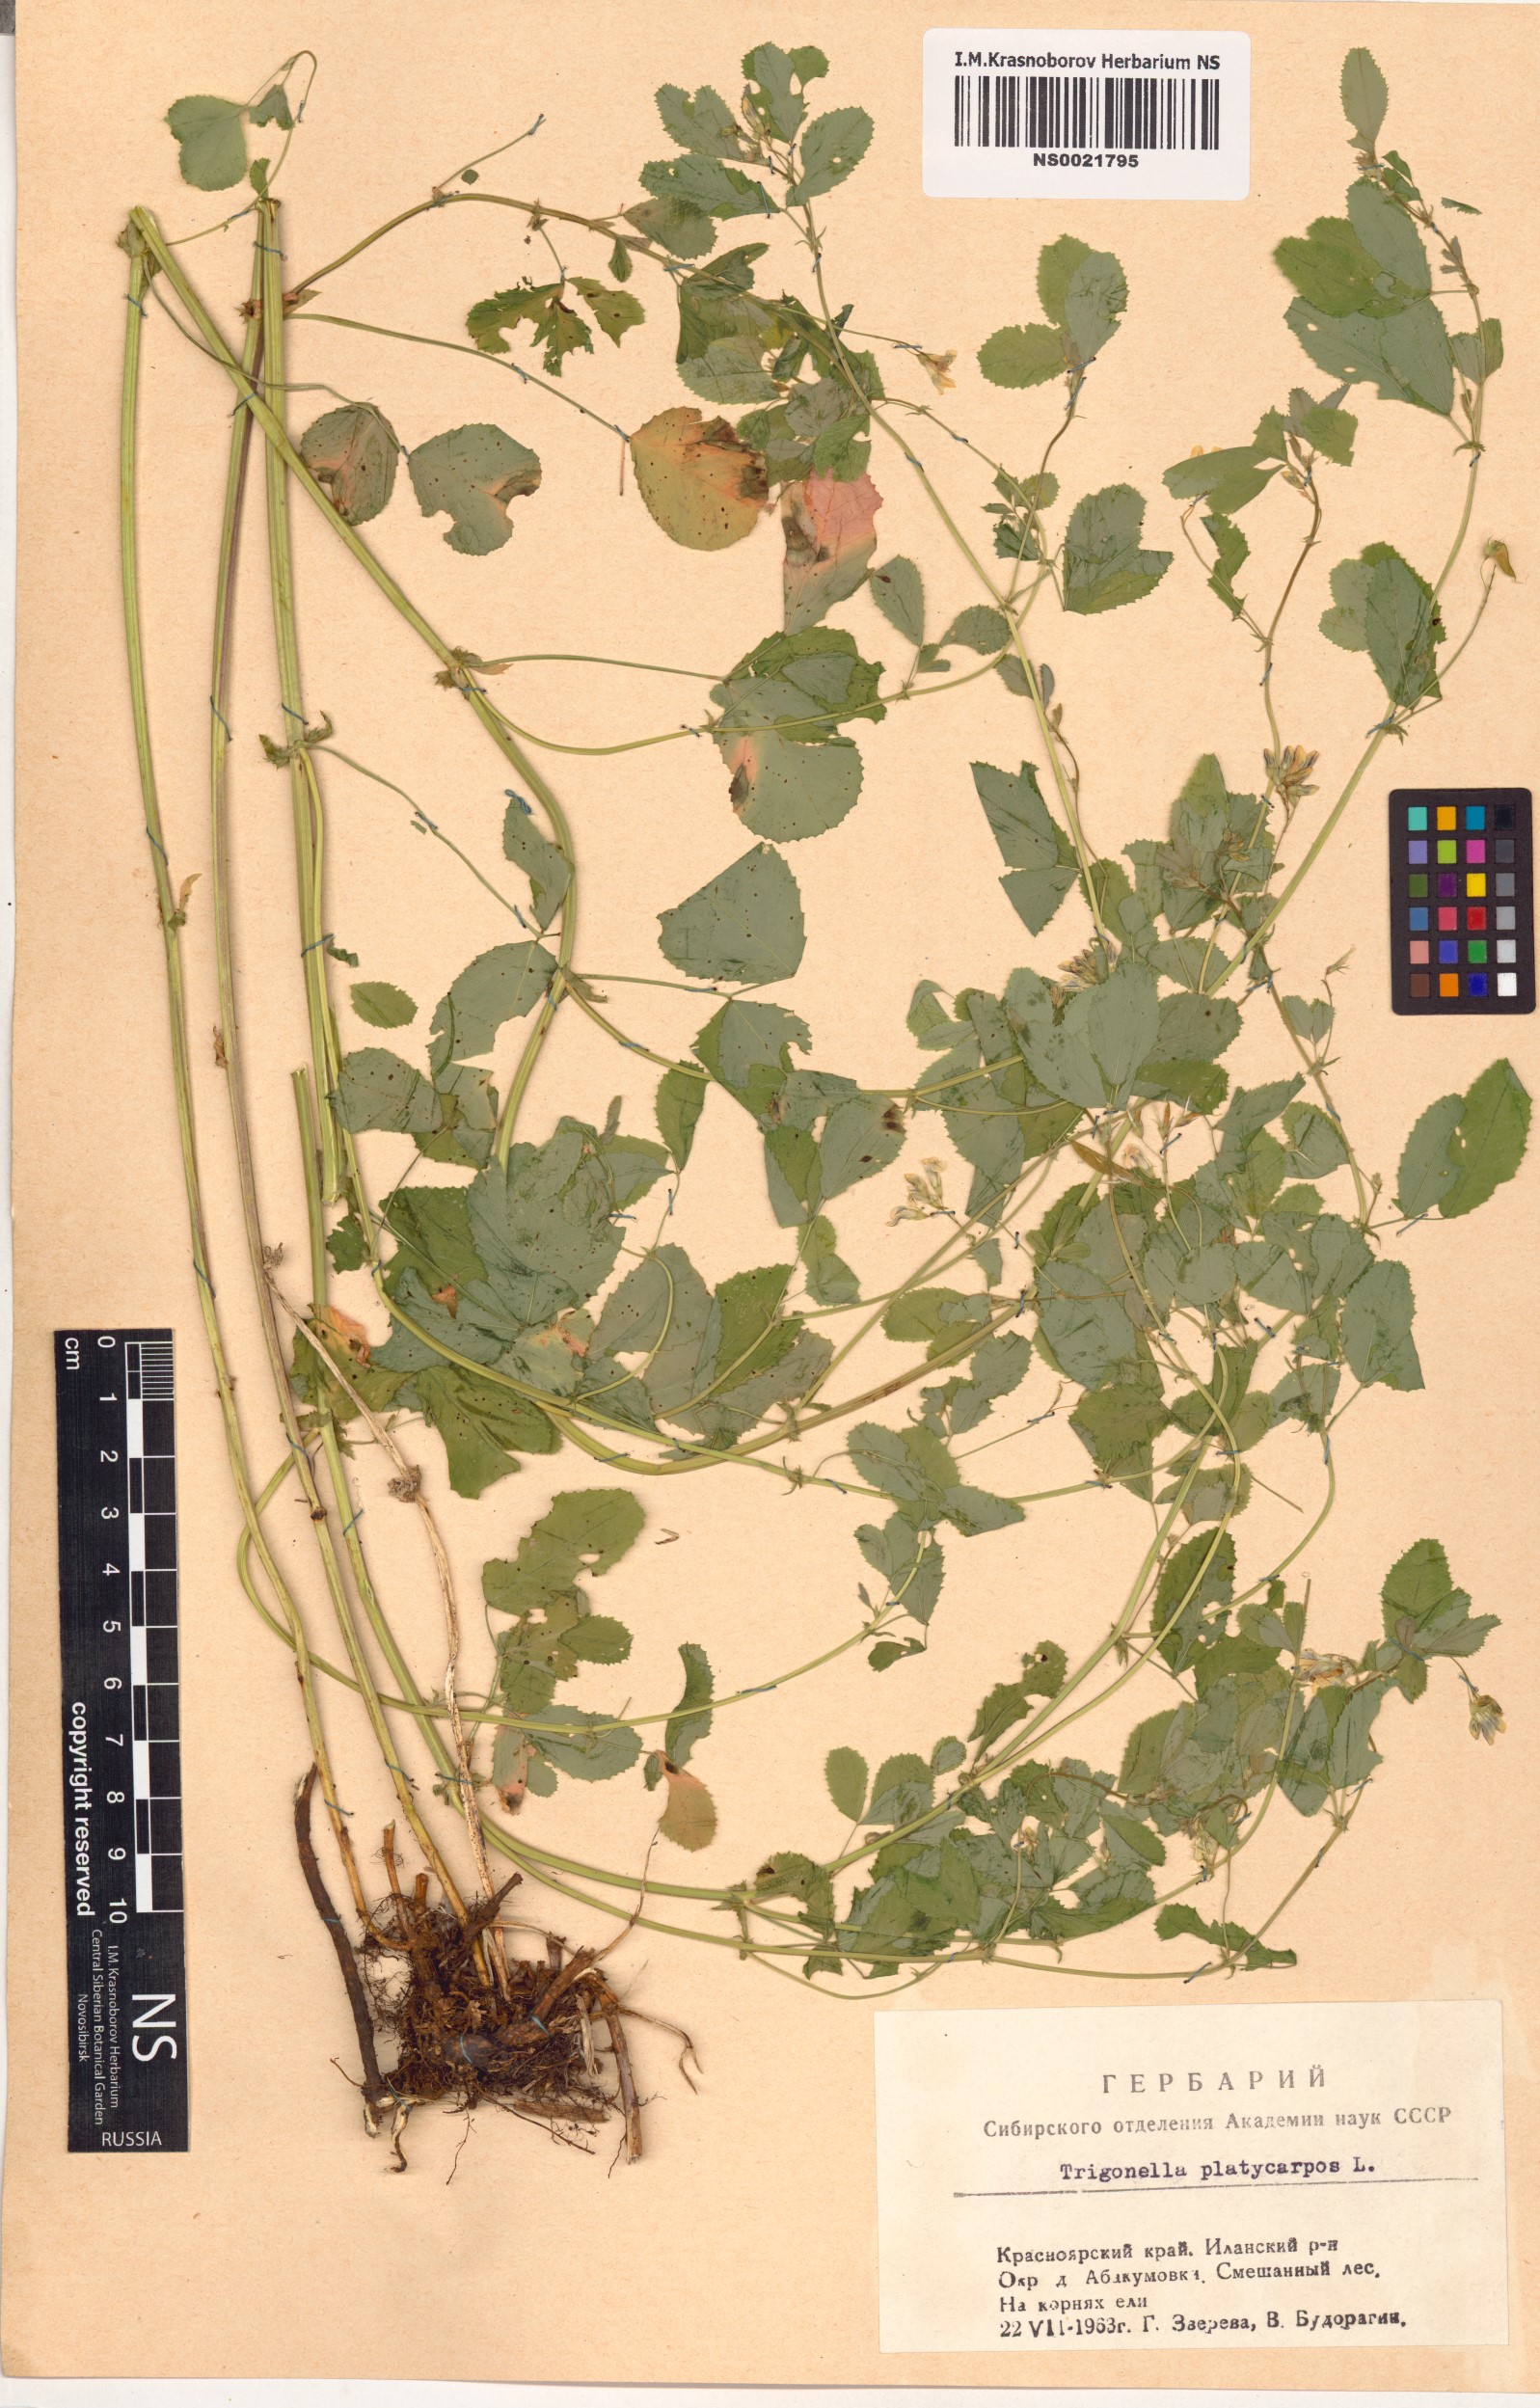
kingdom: Plantae
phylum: Tracheophyta
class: Magnoliopsida
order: Fabales
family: Fabaceae
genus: Medicago
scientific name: Medicago platycarpos
